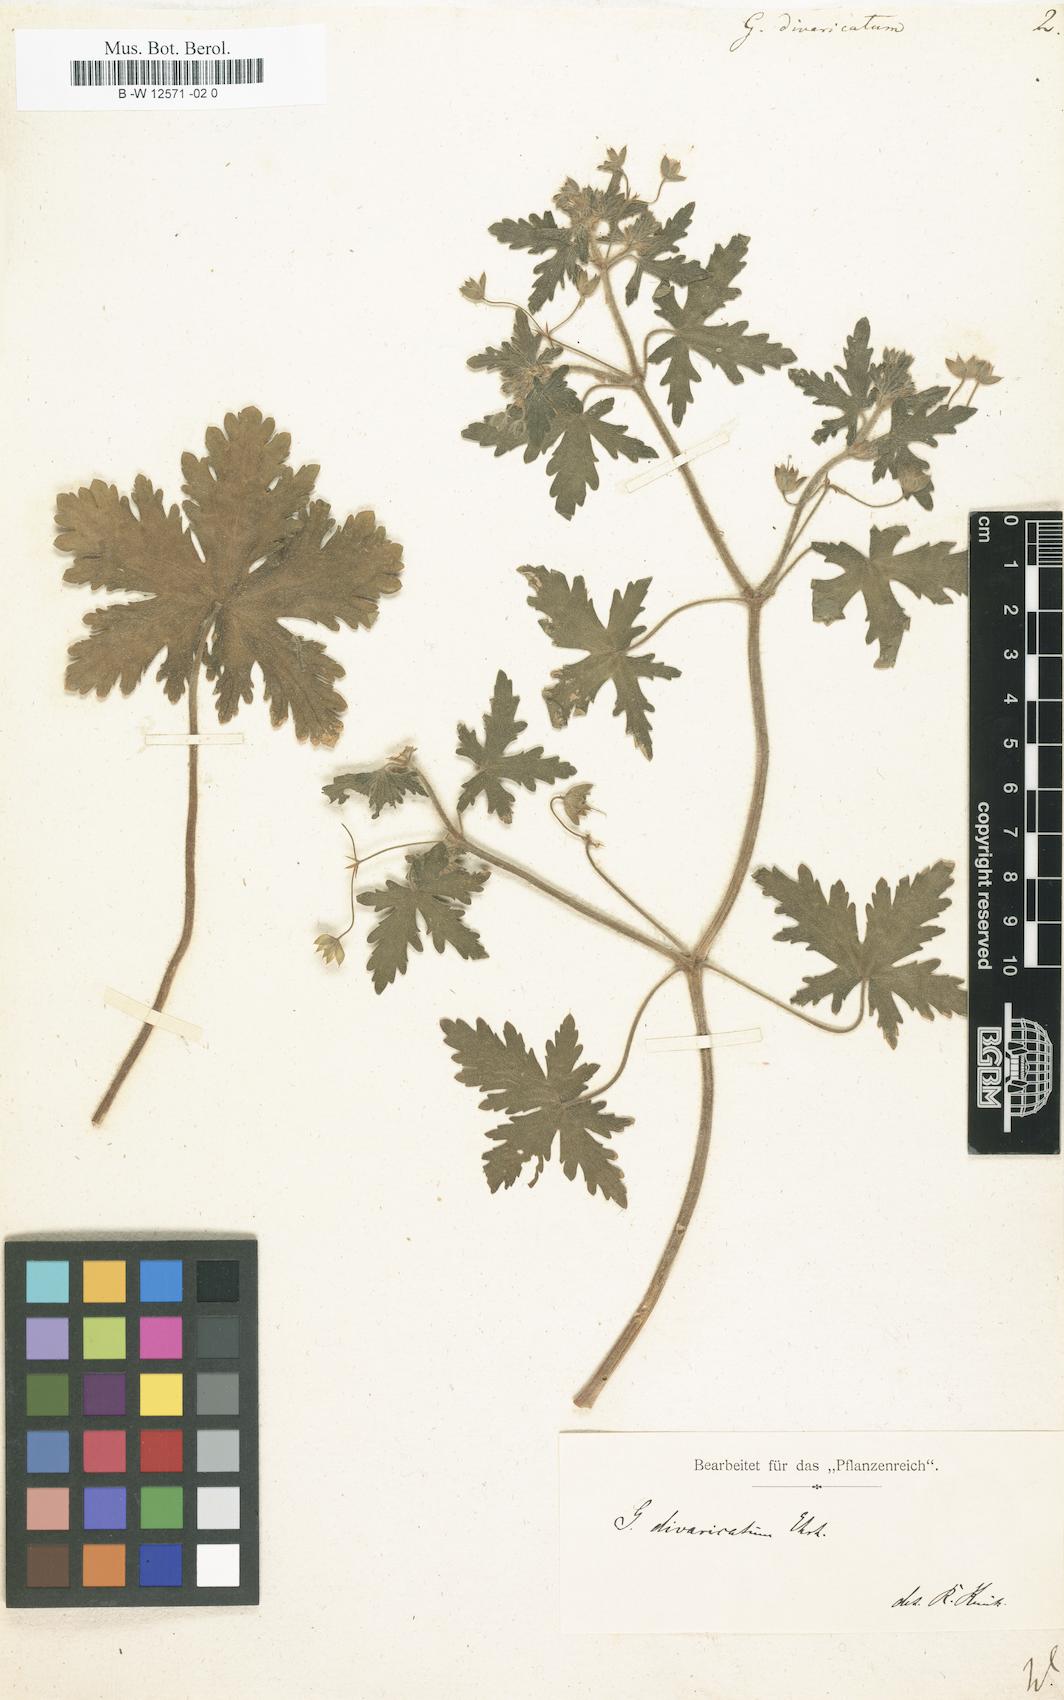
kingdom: Plantae
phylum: Tracheophyta
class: Magnoliopsida
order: Geraniales
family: Geraniaceae
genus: Geranium
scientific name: Geranium divaricatum
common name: Spreading crane's-bill
